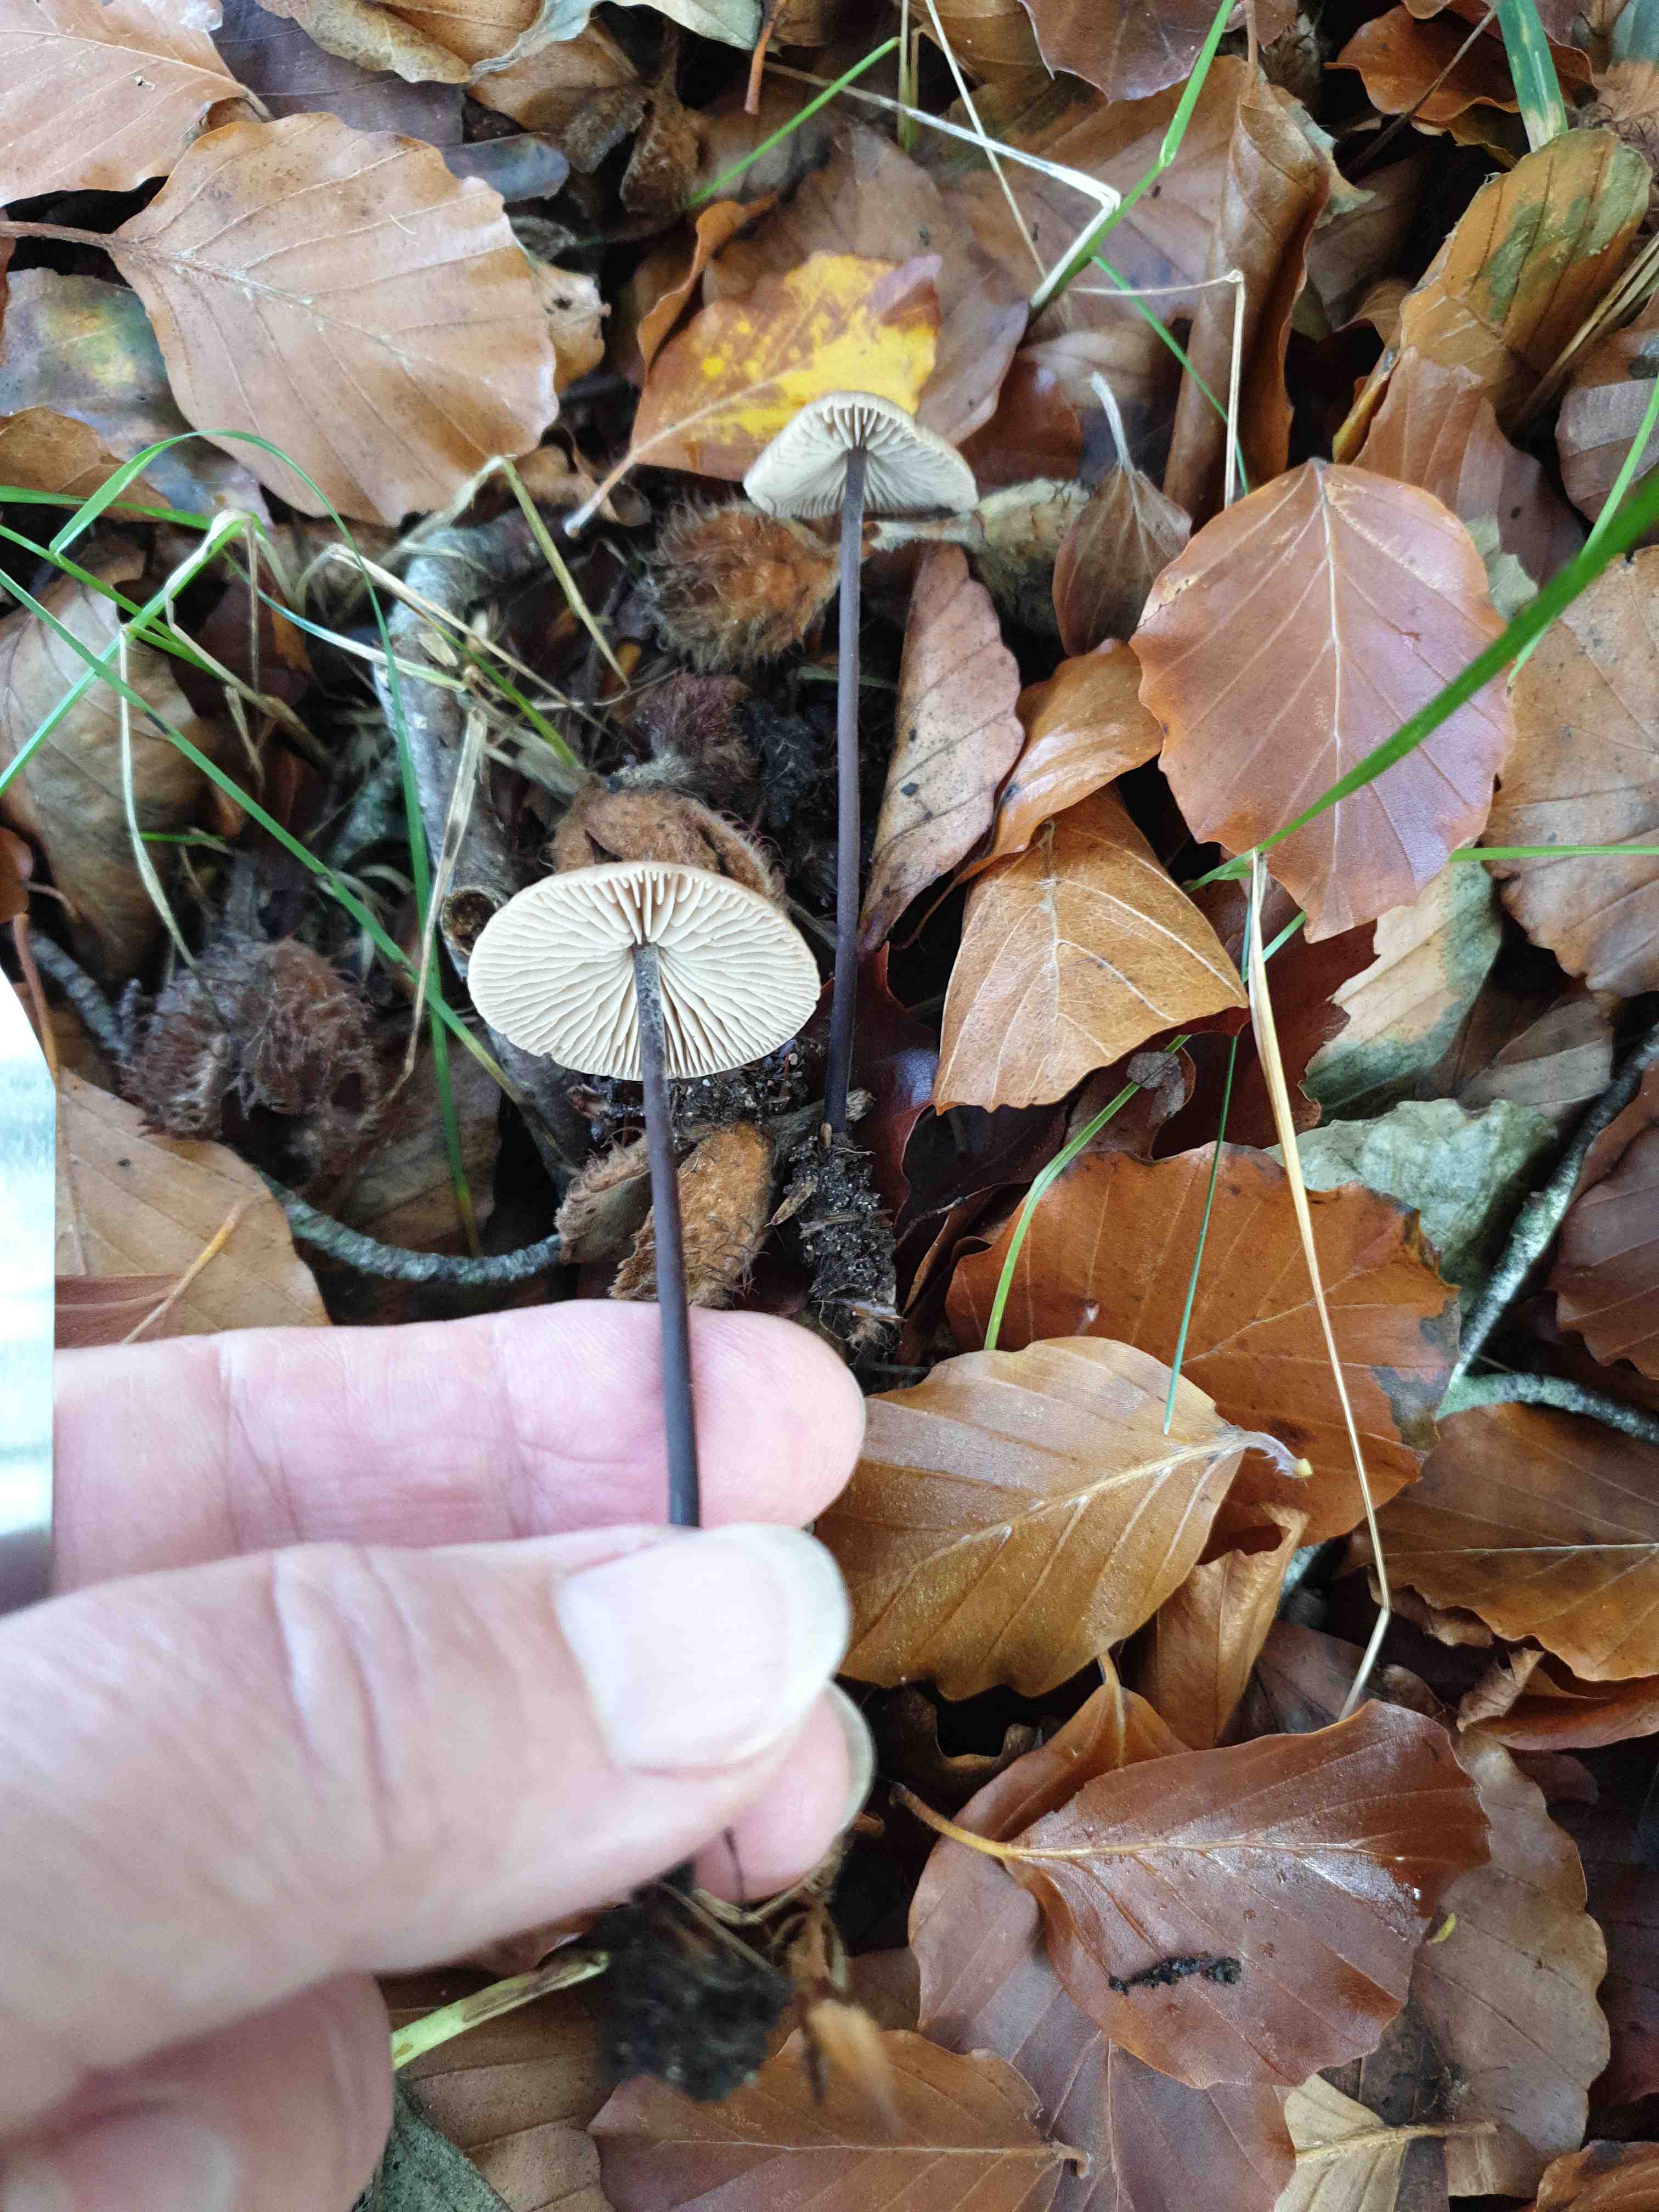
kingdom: Fungi
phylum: Basidiomycota
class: Agaricomycetes
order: Agaricales
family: Omphalotaceae
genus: Mycetinis
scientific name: Mycetinis alliaceus
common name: stor løghat
